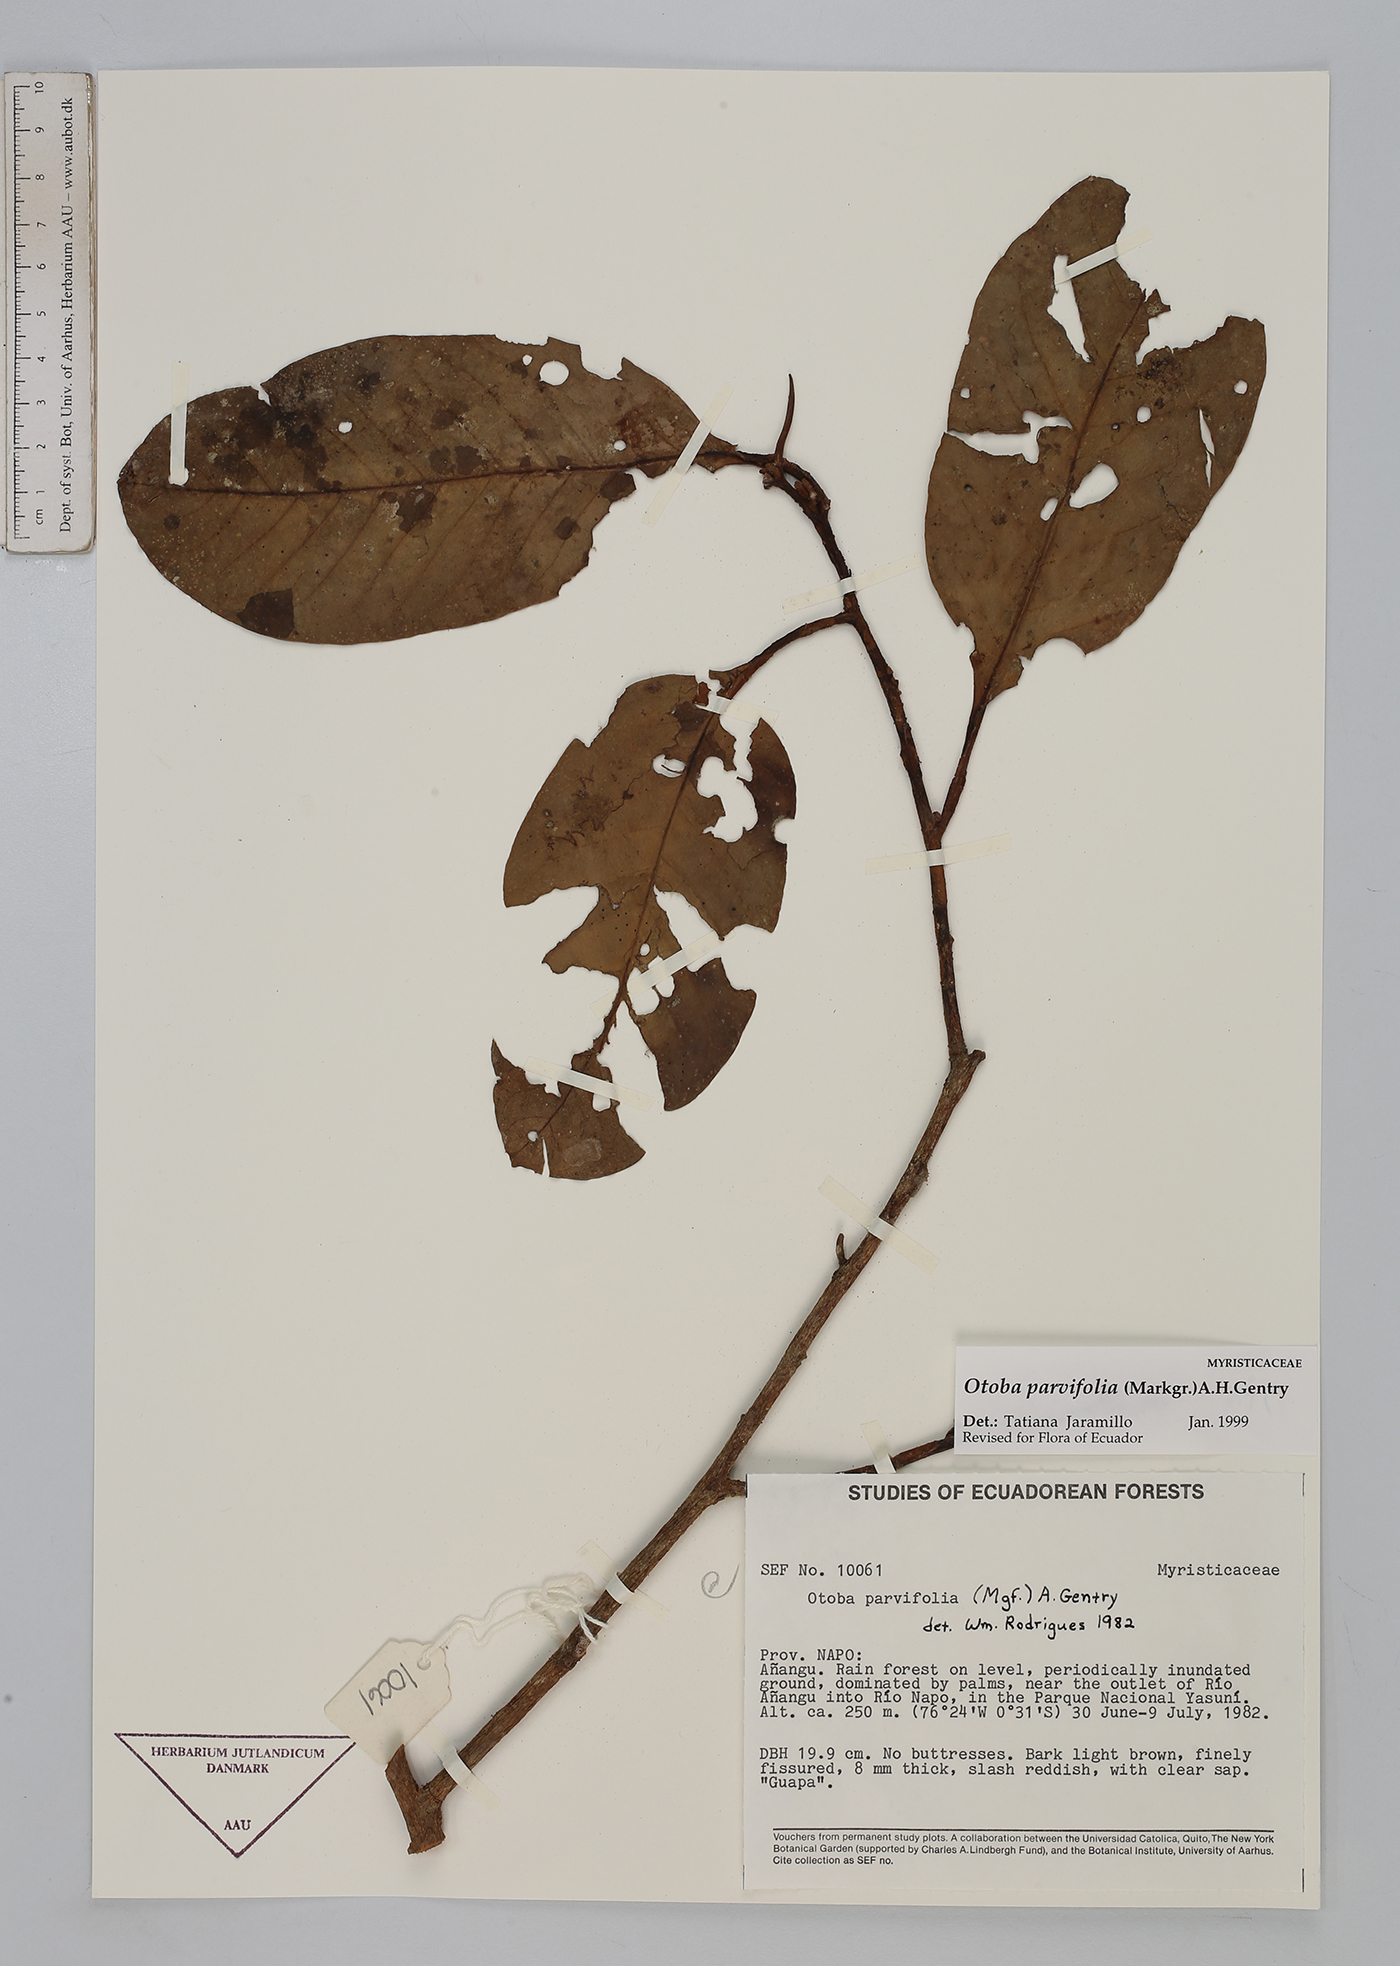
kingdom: Plantae
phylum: Tracheophyta
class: Magnoliopsida
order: Magnoliales
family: Myristicaceae
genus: Otoba
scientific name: Otoba parvifolia
